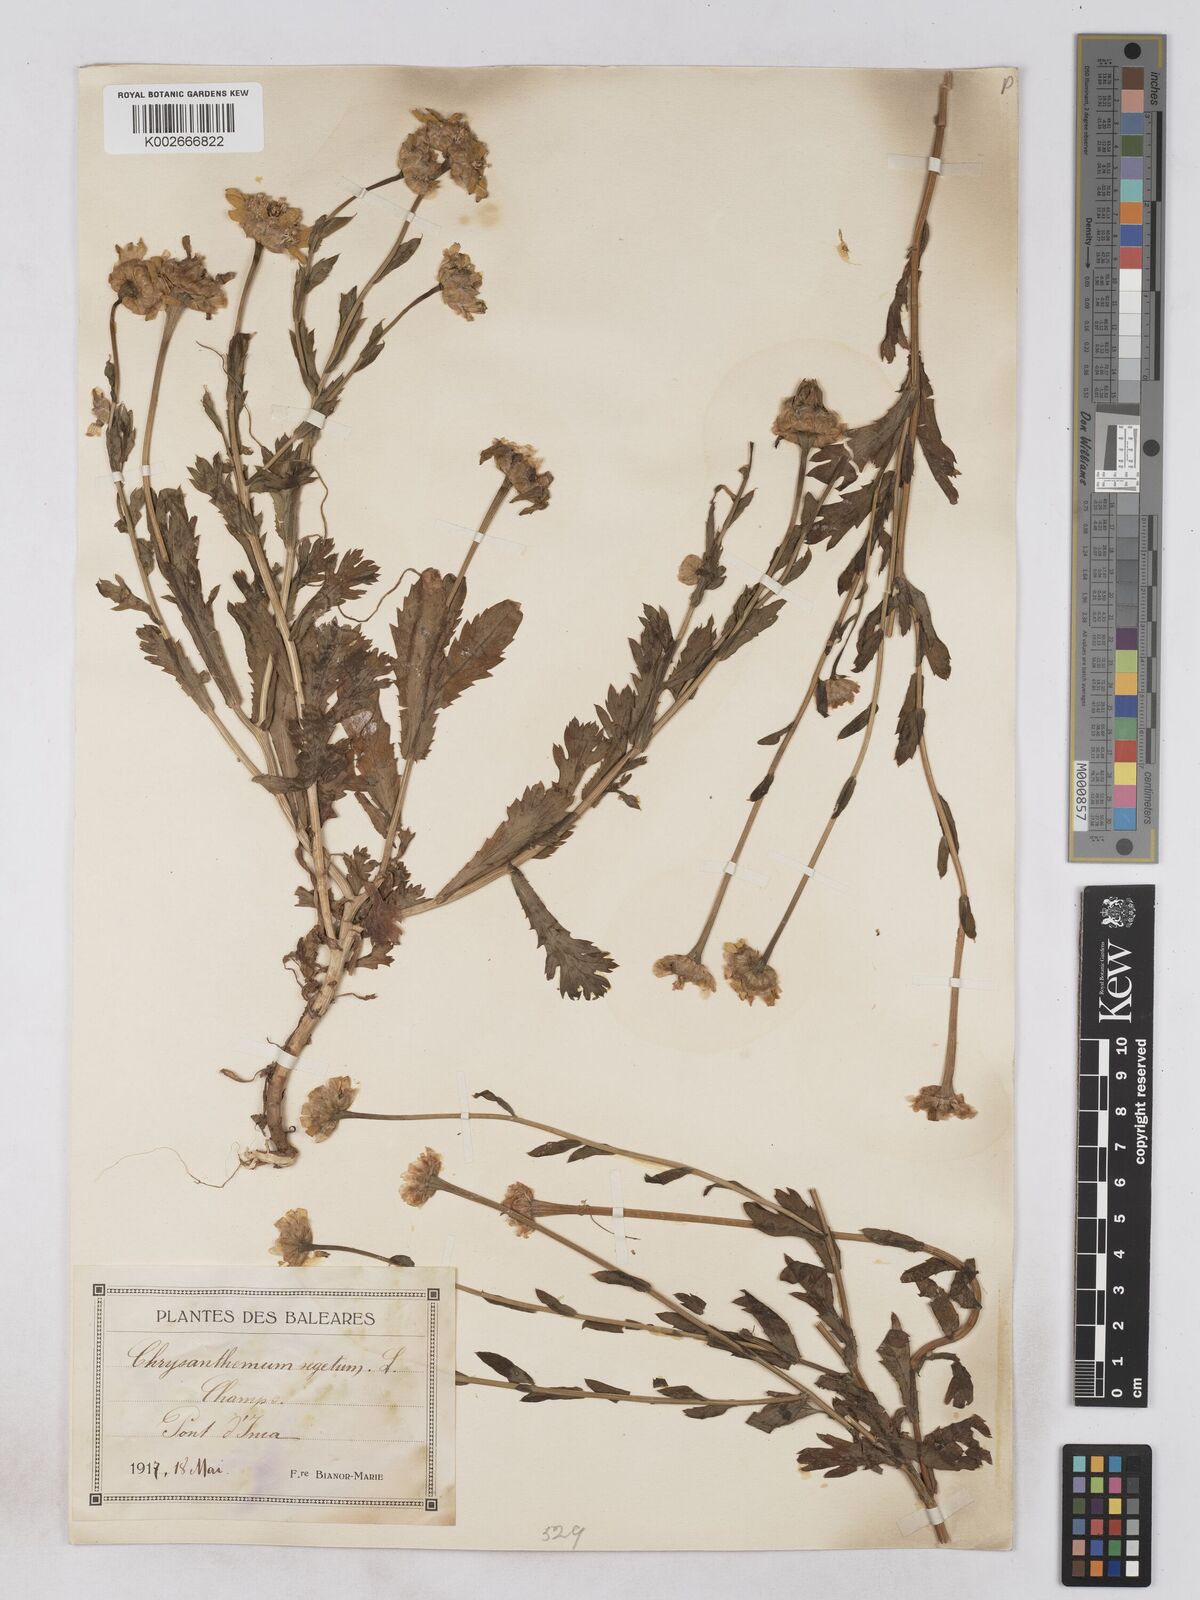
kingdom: Plantae
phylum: Tracheophyta
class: Magnoliopsida
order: Asterales
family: Asteraceae
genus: Glebionis
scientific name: Glebionis segetum
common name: Corndaisy
